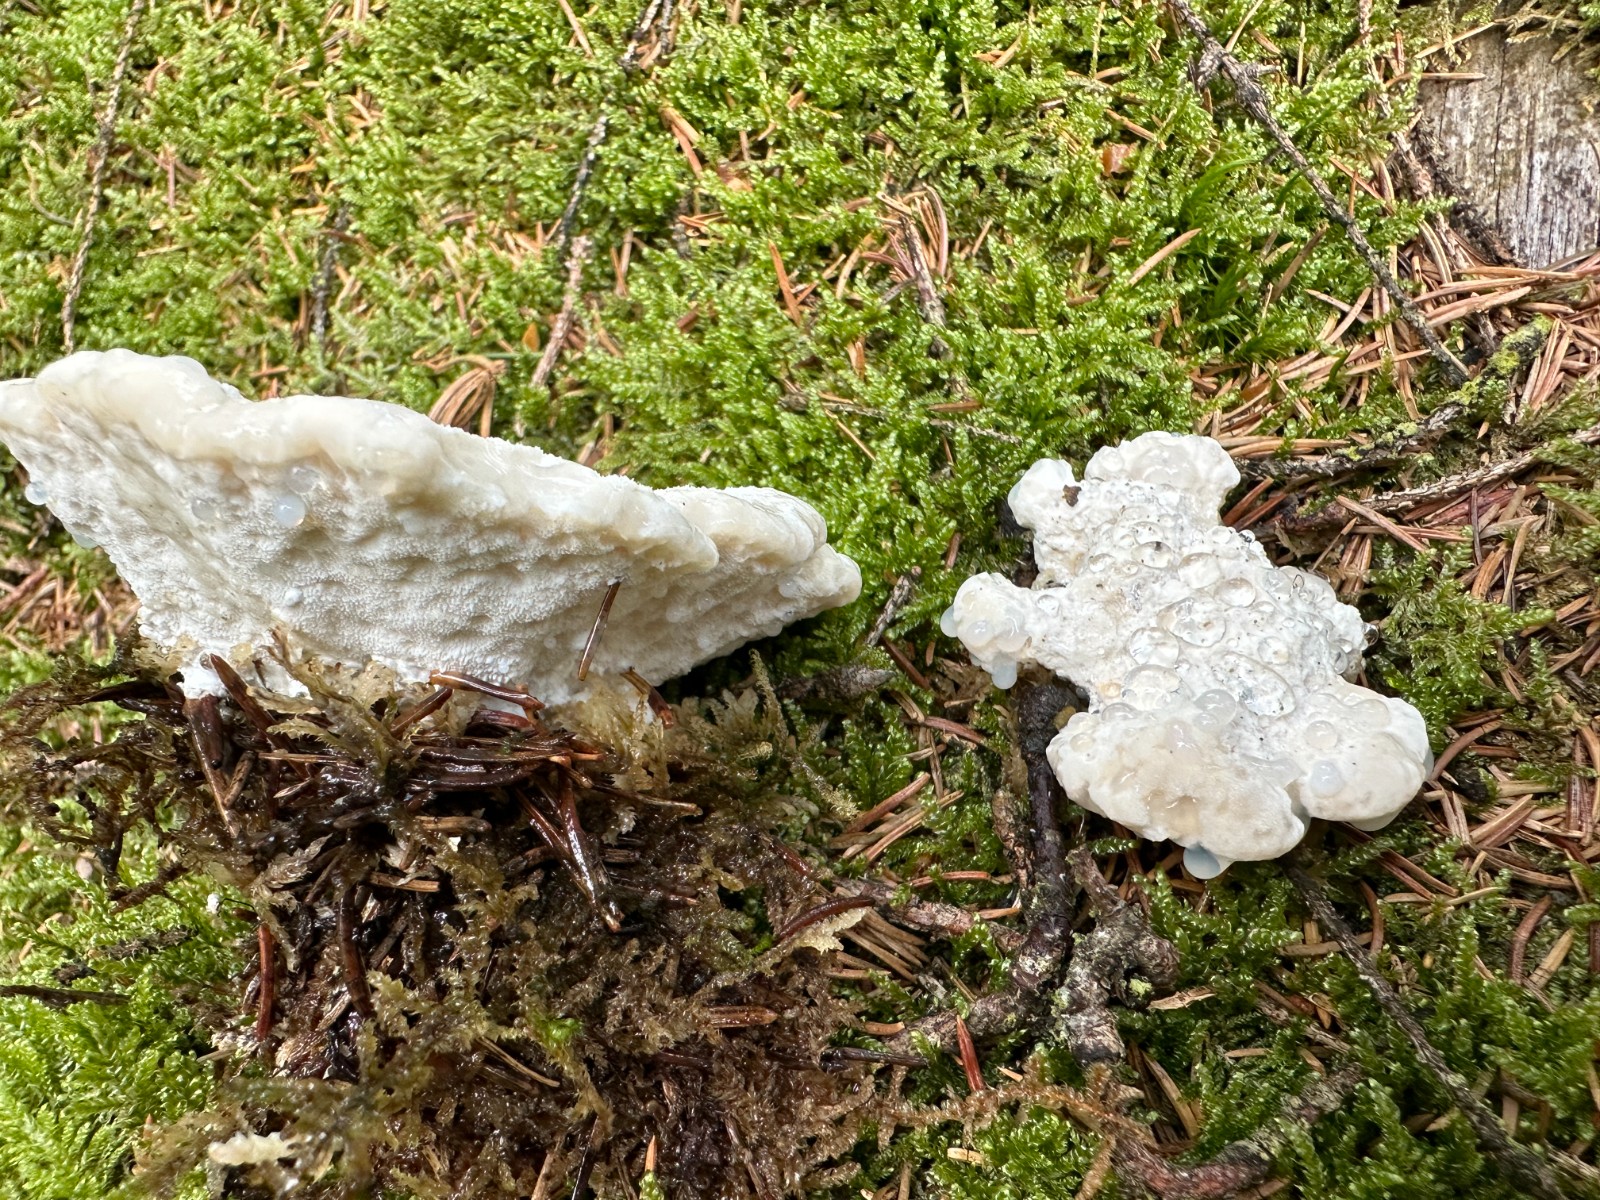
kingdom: Fungi
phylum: Basidiomycota
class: Agaricomycetes
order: Polyporales
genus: Amaropostia
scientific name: Amaropostia stiptica
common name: bitter kødporesvamp
